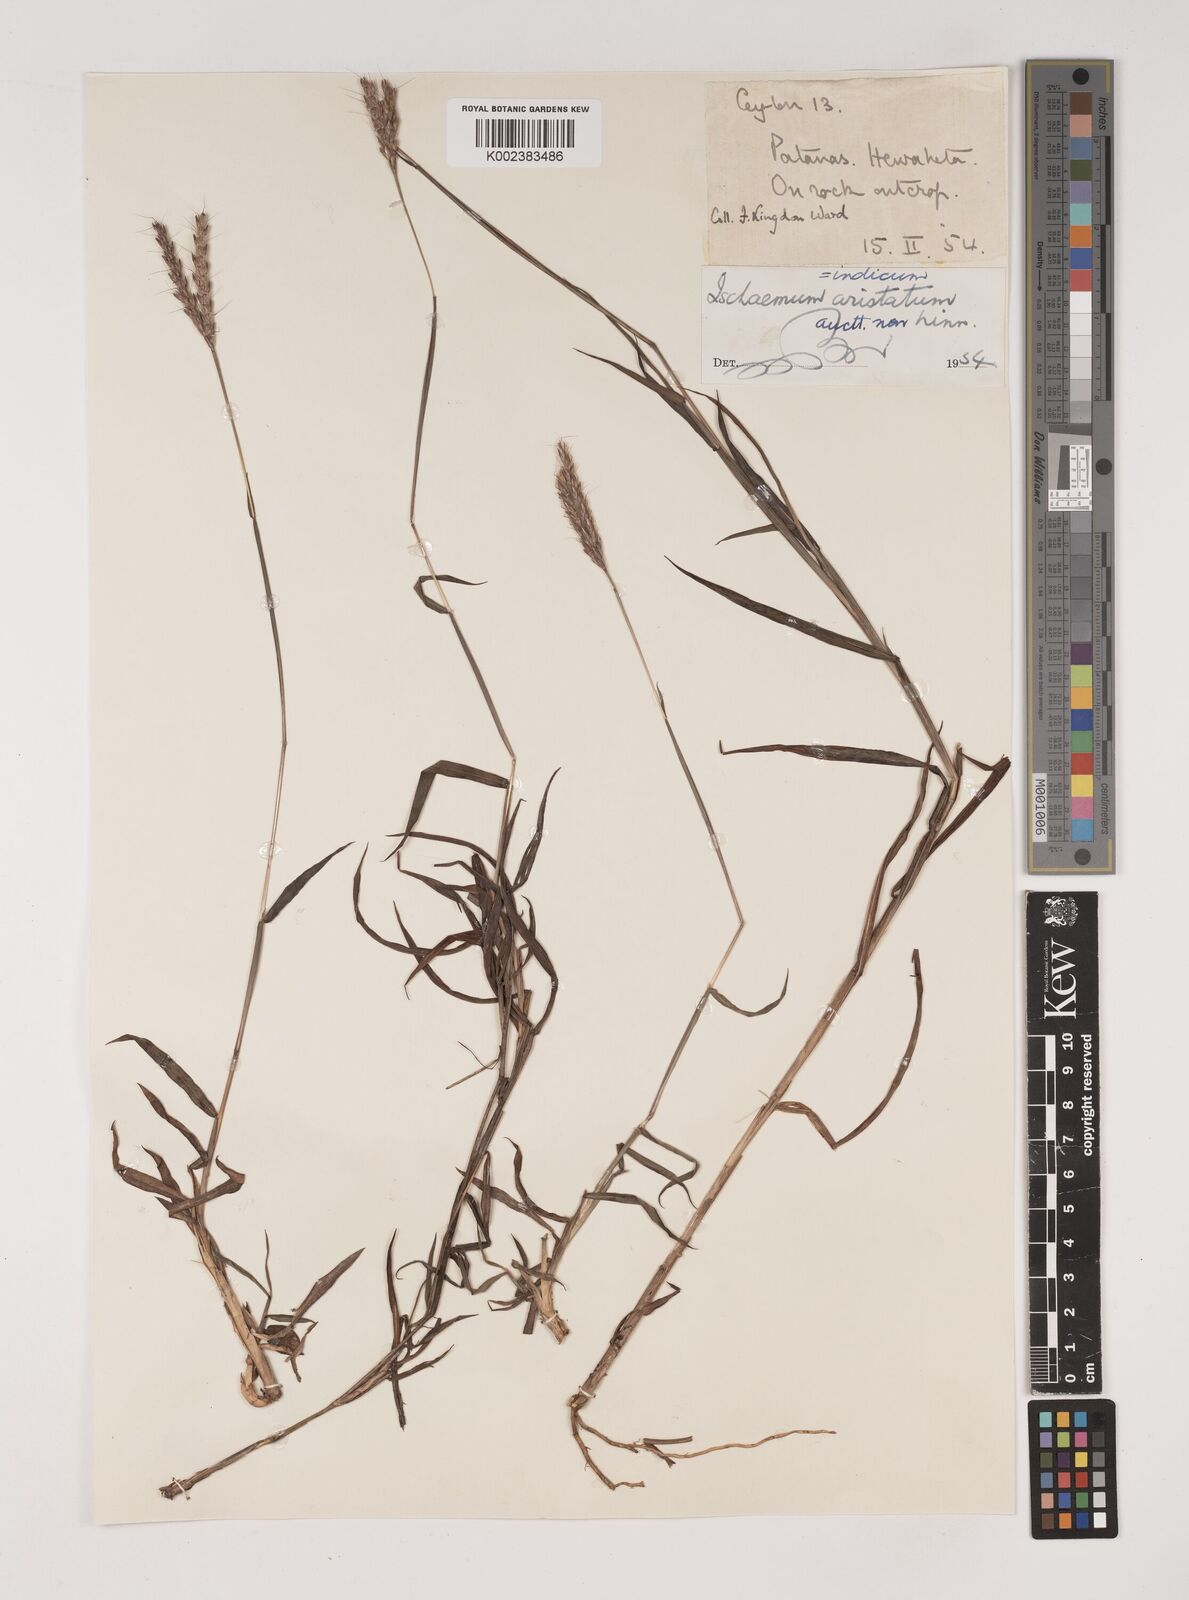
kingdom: Plantae
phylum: Tracheophyta
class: Liliopsida
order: Poales
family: Poaceae
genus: Polytrias
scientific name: Polytrias indica
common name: Indian murainagrass
